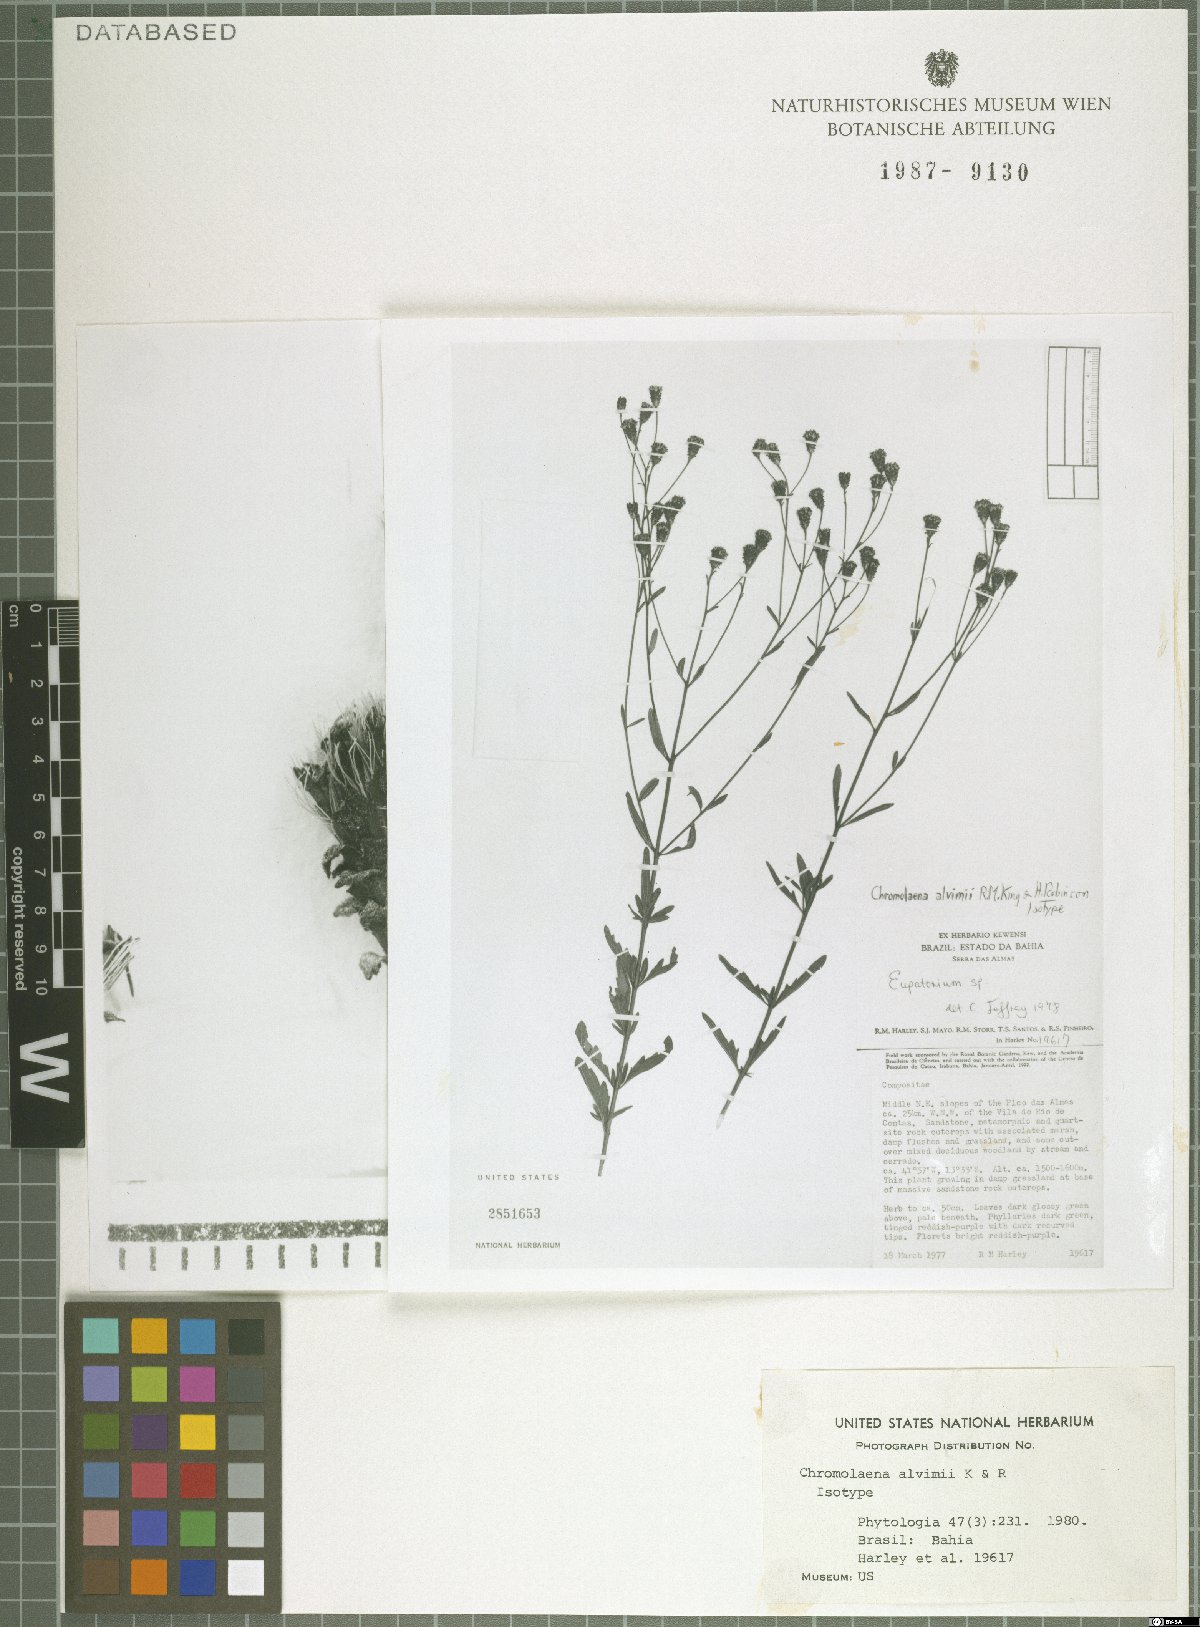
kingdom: Plantae
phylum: Tracheophyta
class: Magnoliopsida
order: Asterales
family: Asteraceae
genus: Chromolaena
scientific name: Chromolaena alvimii
